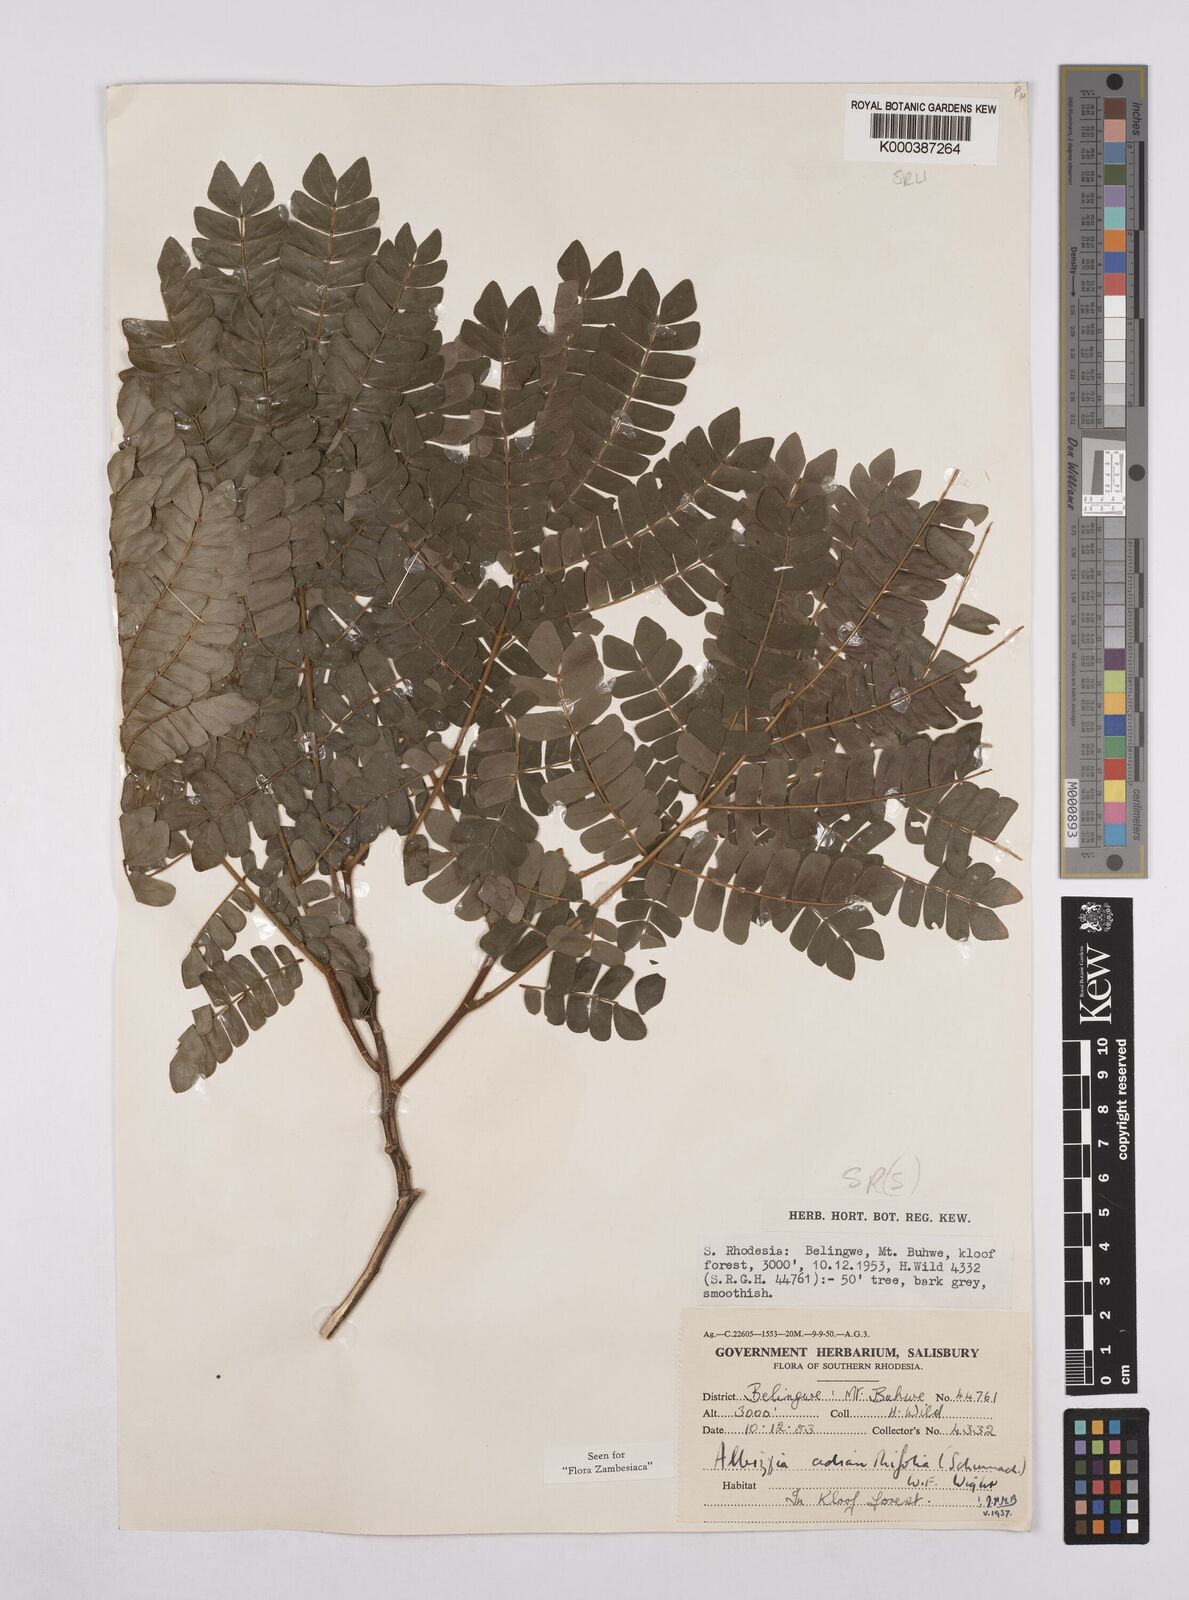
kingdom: Plantae
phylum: Tracheophyta
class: Magnoliopsida
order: Fabales
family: Fabaceae
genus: Albizia
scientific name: Albizia adianthifolia
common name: West african albizia
